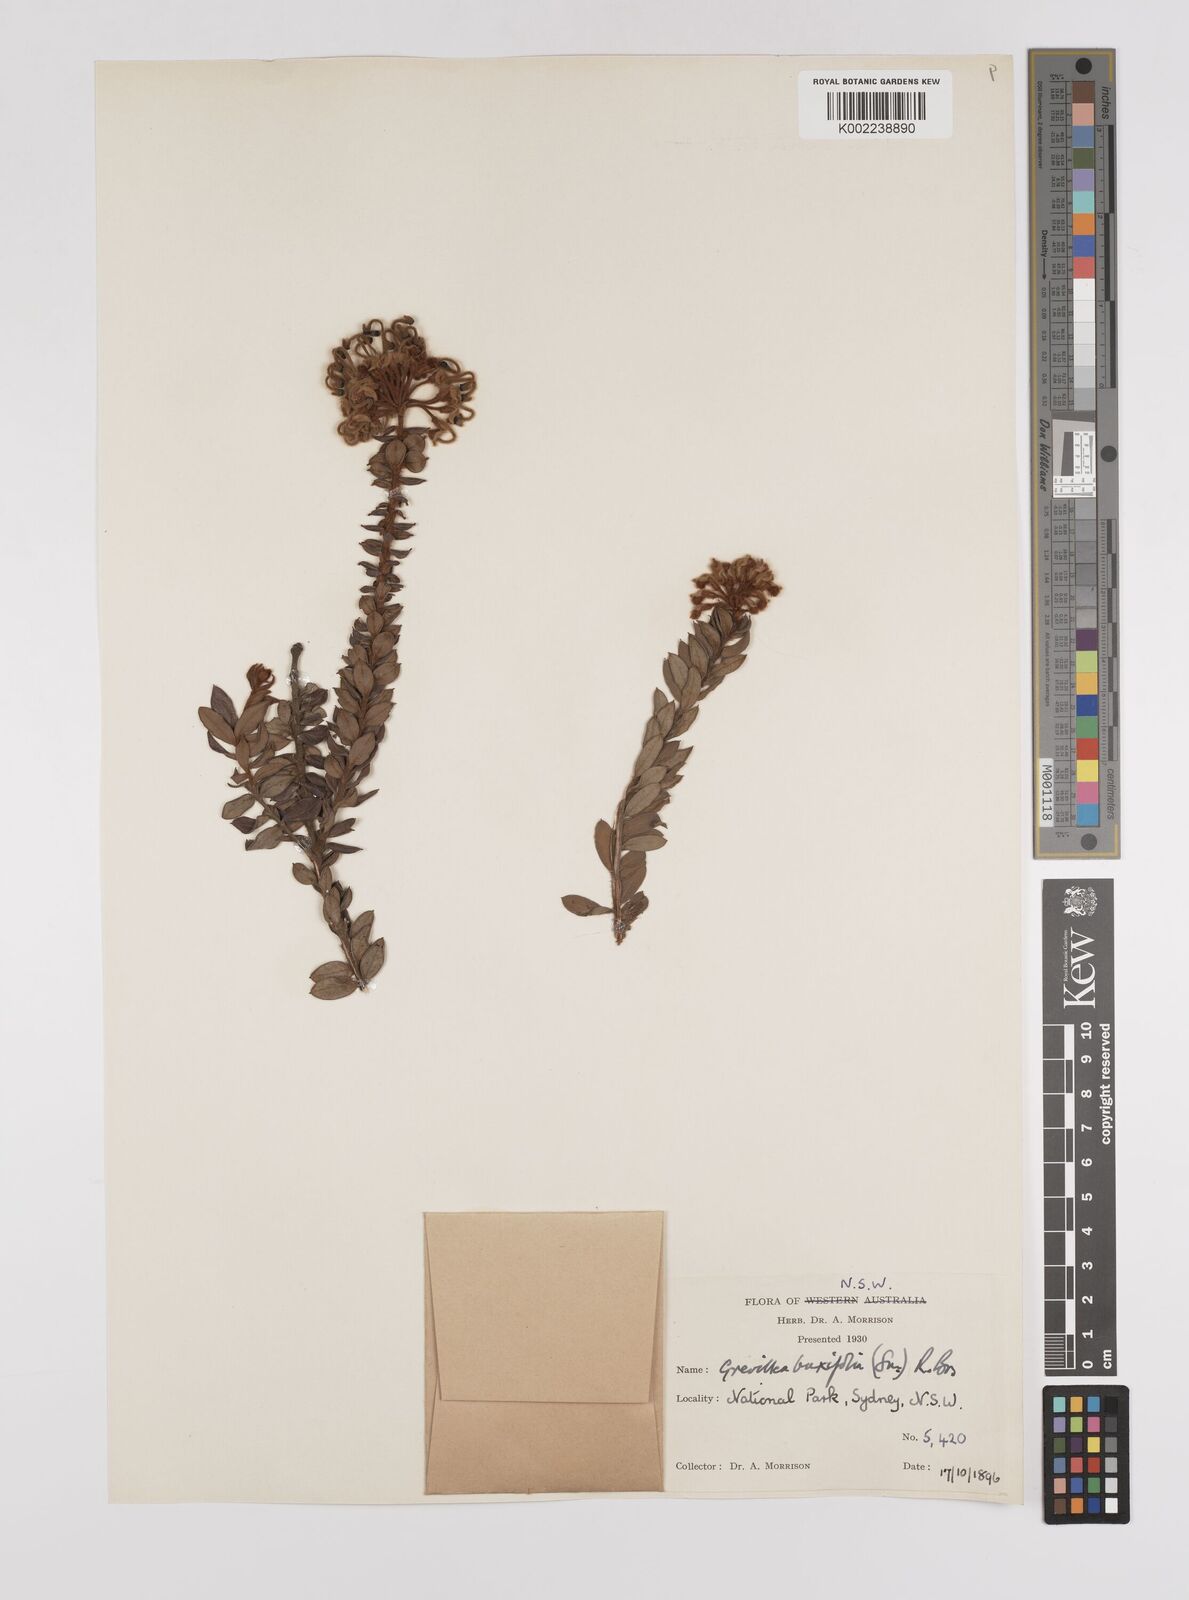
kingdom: Plantae
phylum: Tracheophyta
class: Magnoliopsida
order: Proteales
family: Proteaceae
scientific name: Proteaceae
